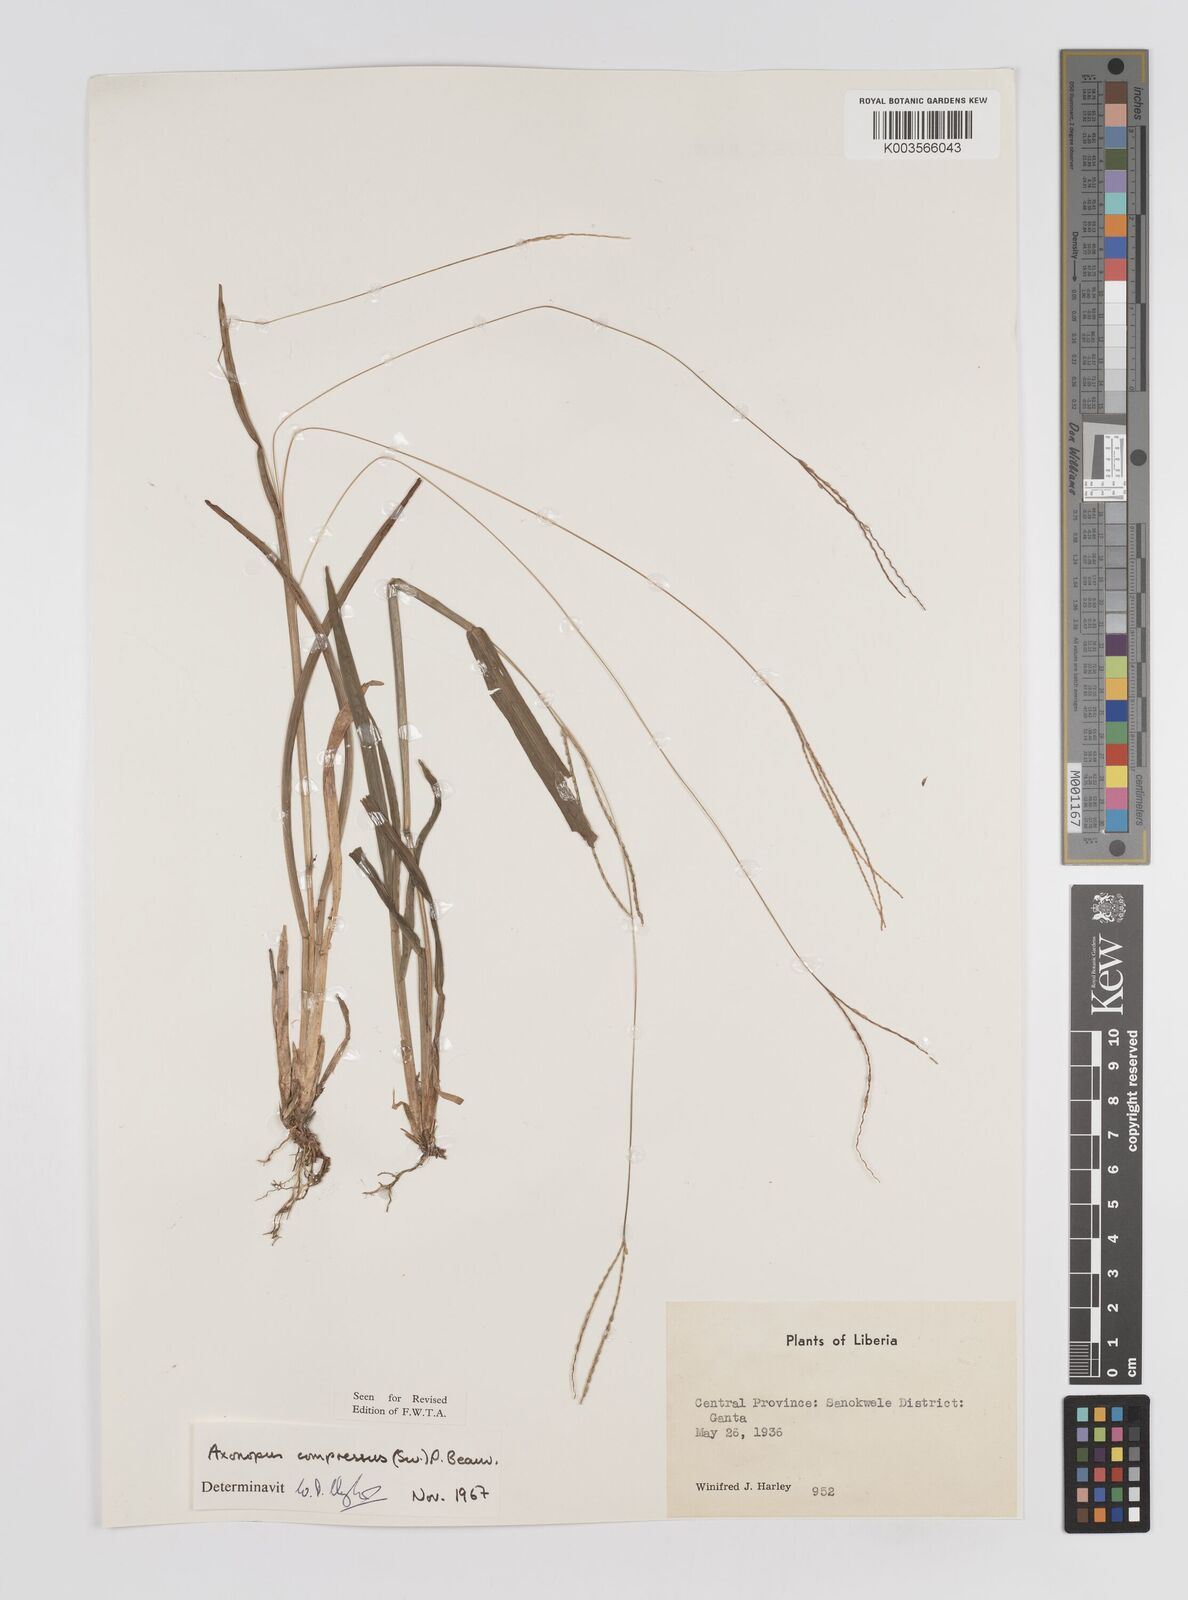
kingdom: Plantae
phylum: Tracheophyta
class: Liliopsida
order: Poales
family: Poaceae
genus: Axonopus
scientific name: Axonopus compressus
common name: American carpet grass
